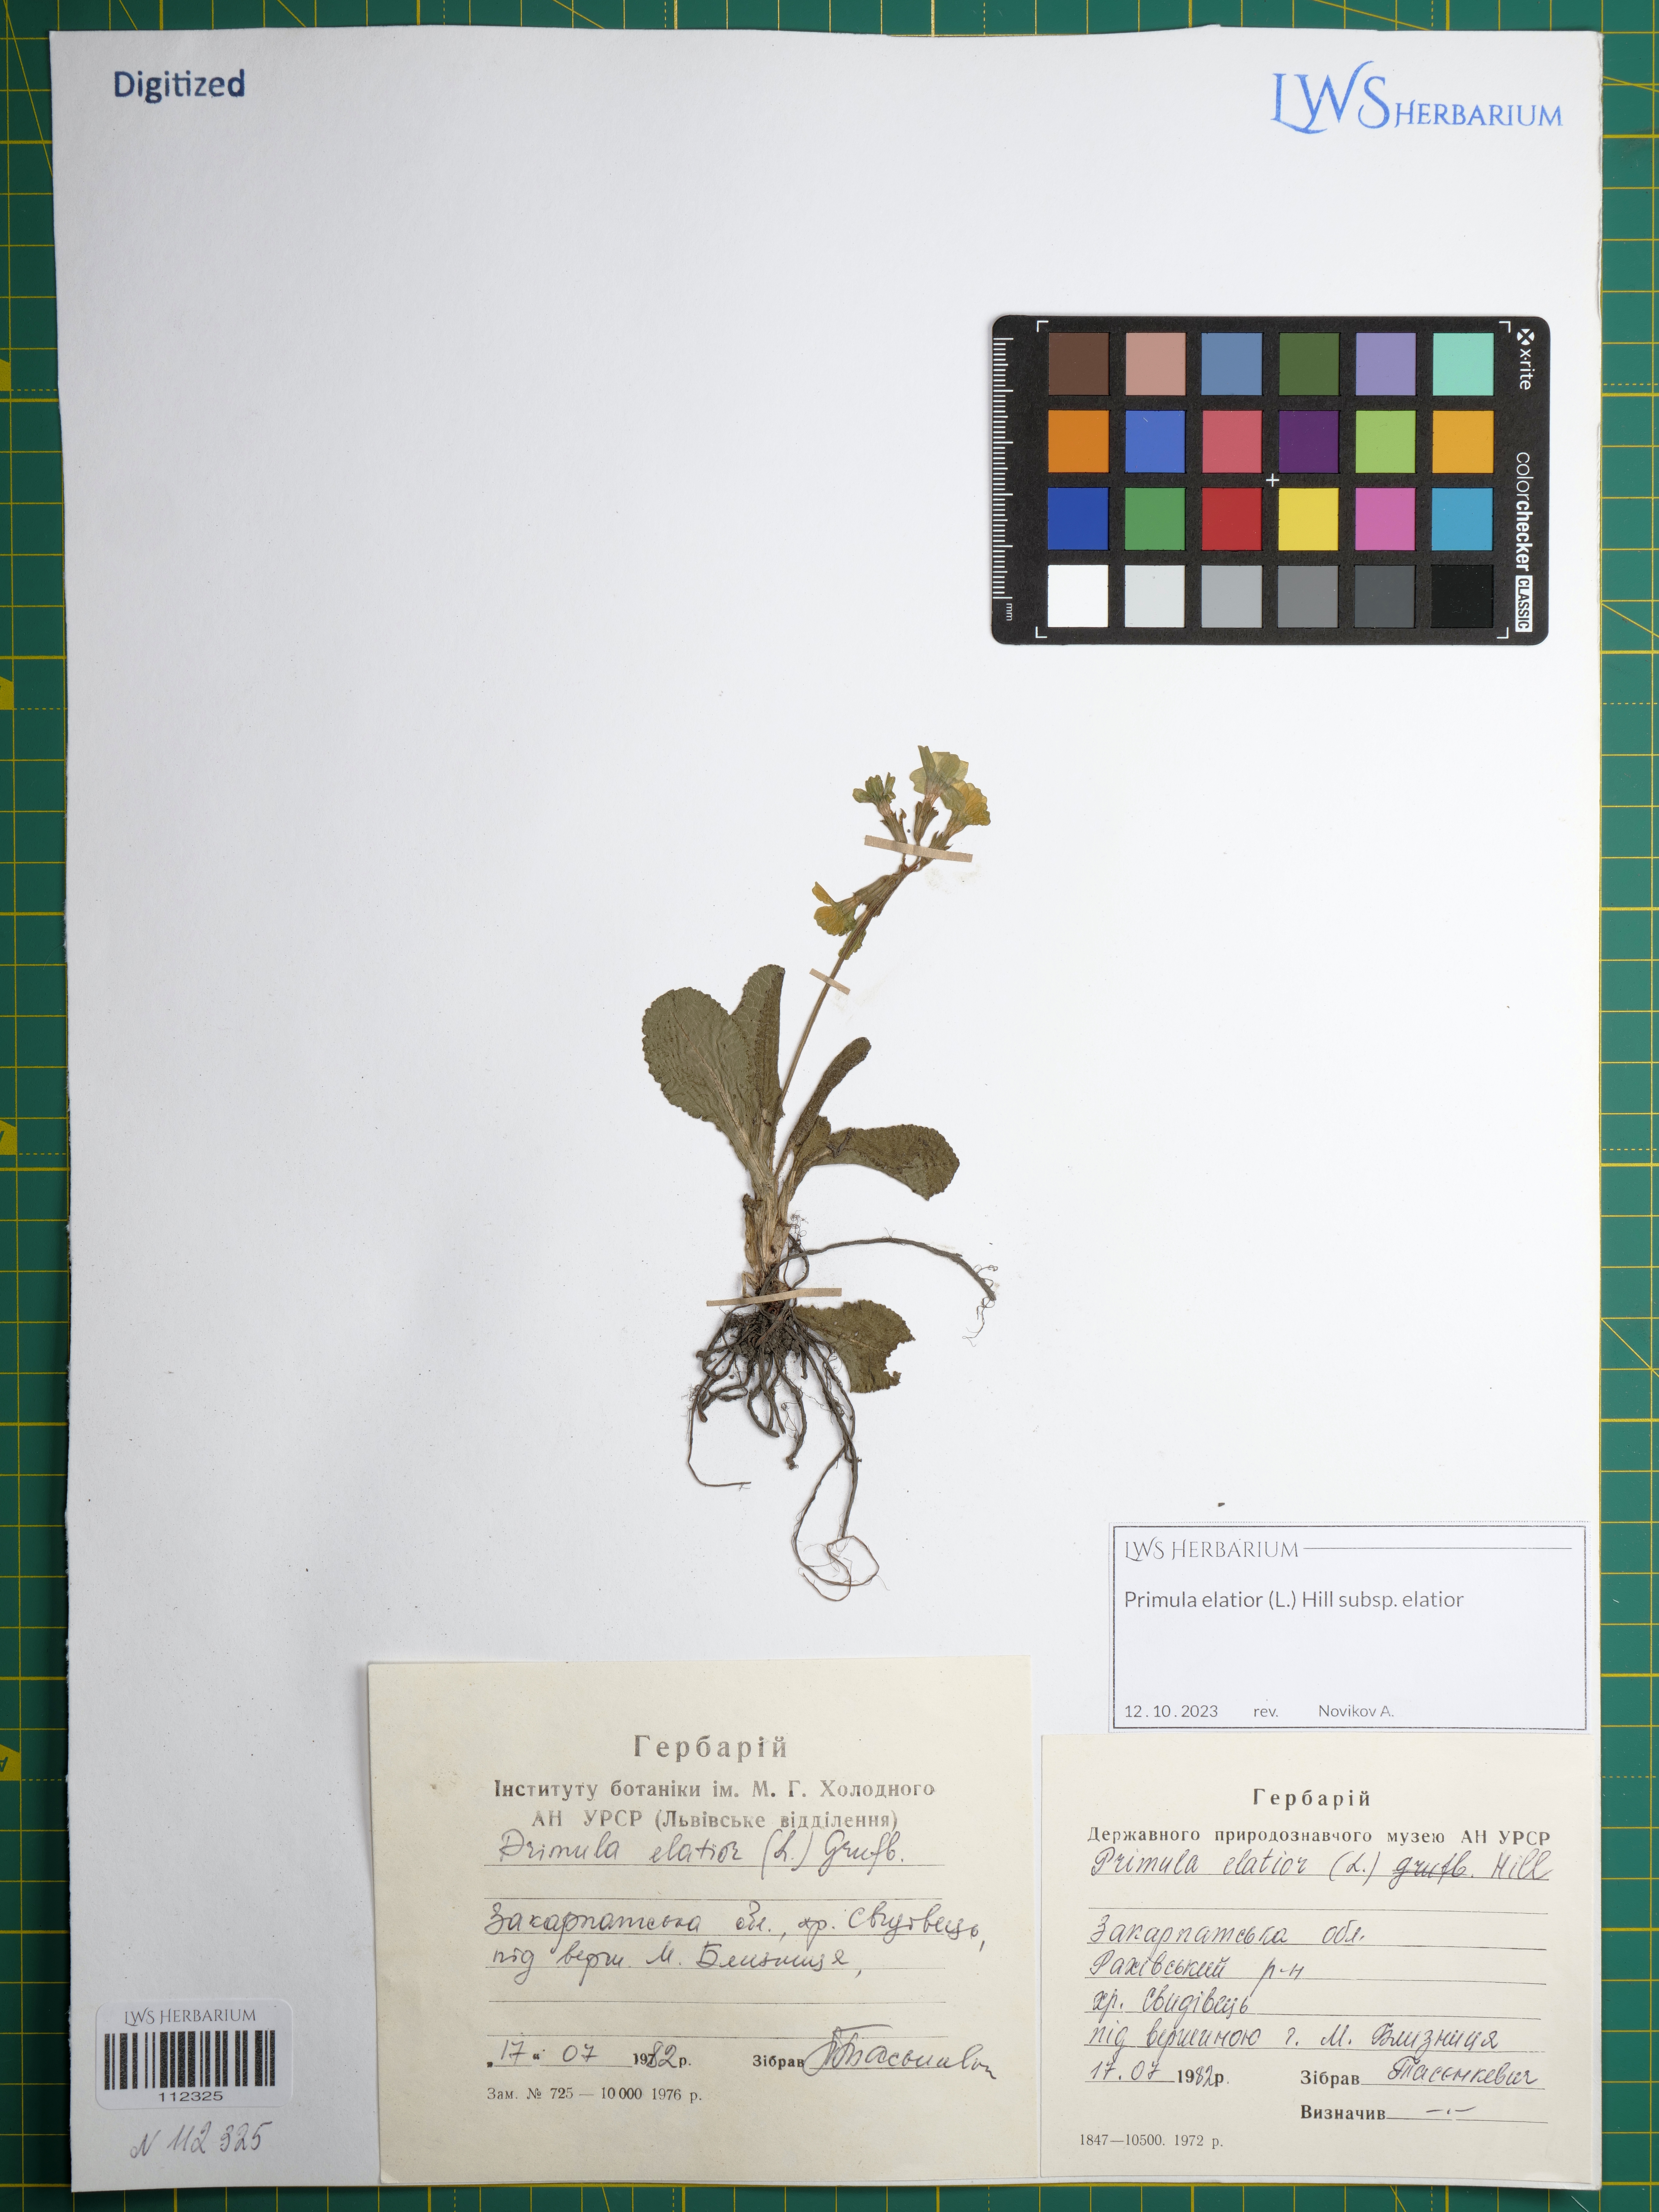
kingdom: Plantae
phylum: Tracheophyta
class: Magnoliopsida
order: Ericales
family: Primulaceae
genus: Primula
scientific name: Primula elatior
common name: Oxlip
